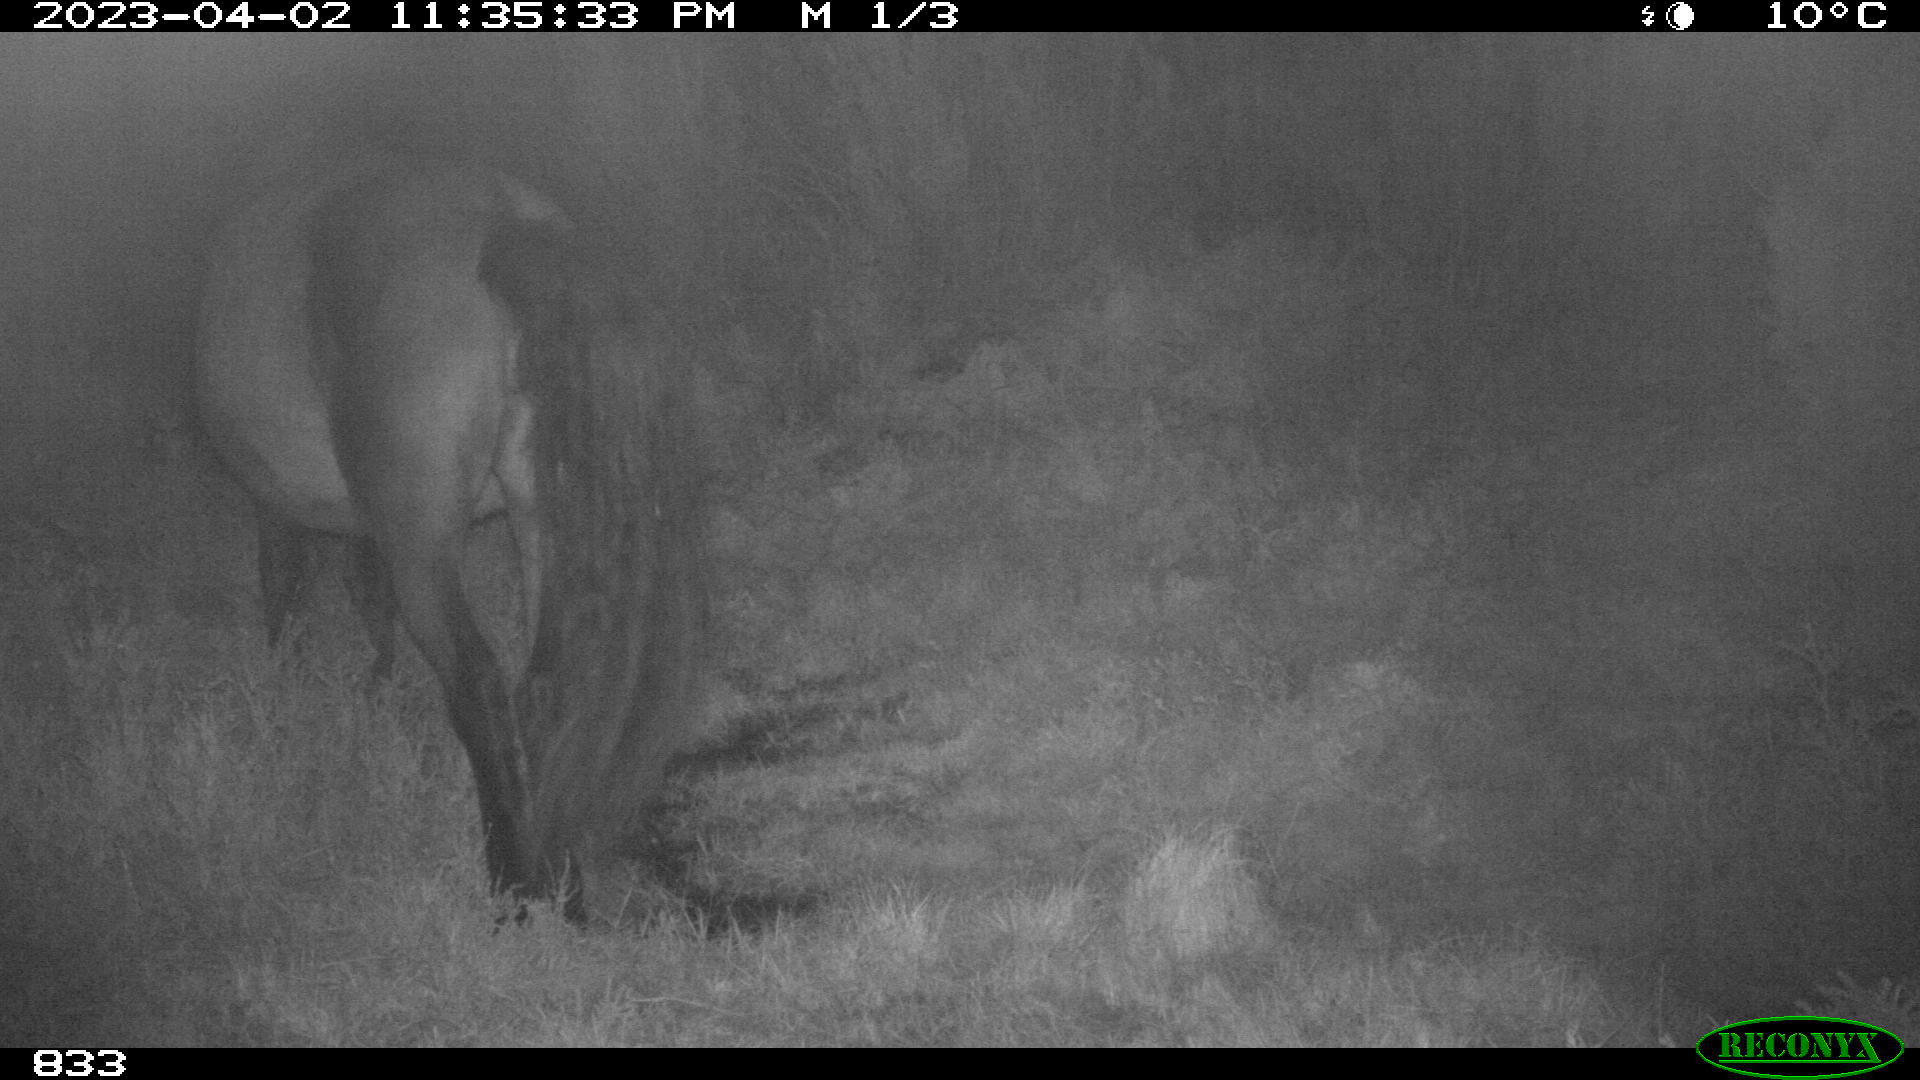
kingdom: Animalia
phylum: Chordata
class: Mammalia
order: Perissodactyla
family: Equidae
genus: Equus
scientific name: Equus caballus
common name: Horse
